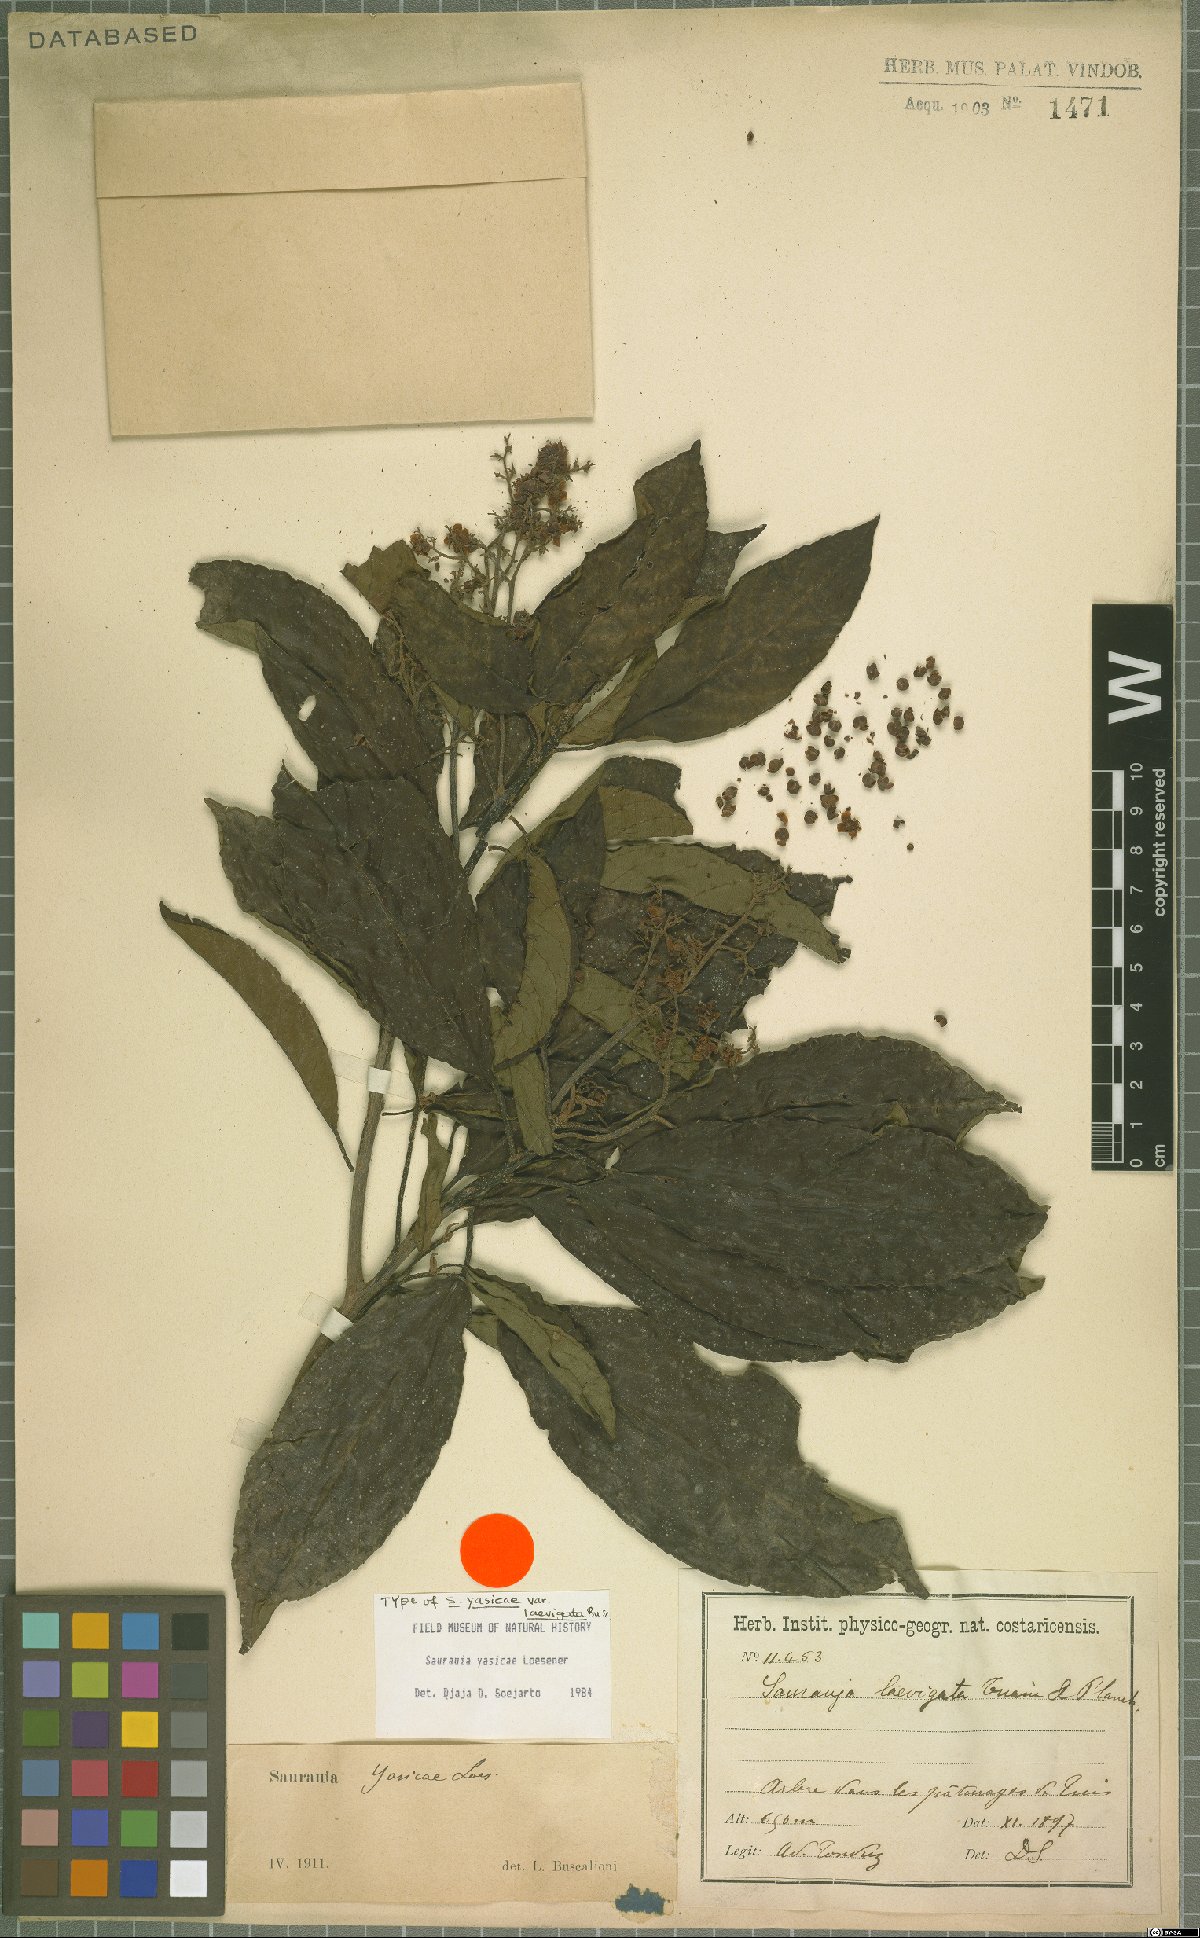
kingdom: Plantae
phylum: Tracheophyta
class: Magnoliopsida
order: Ericales
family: Actinidiaceae
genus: Saurauia
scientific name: Saurauia yasicae
